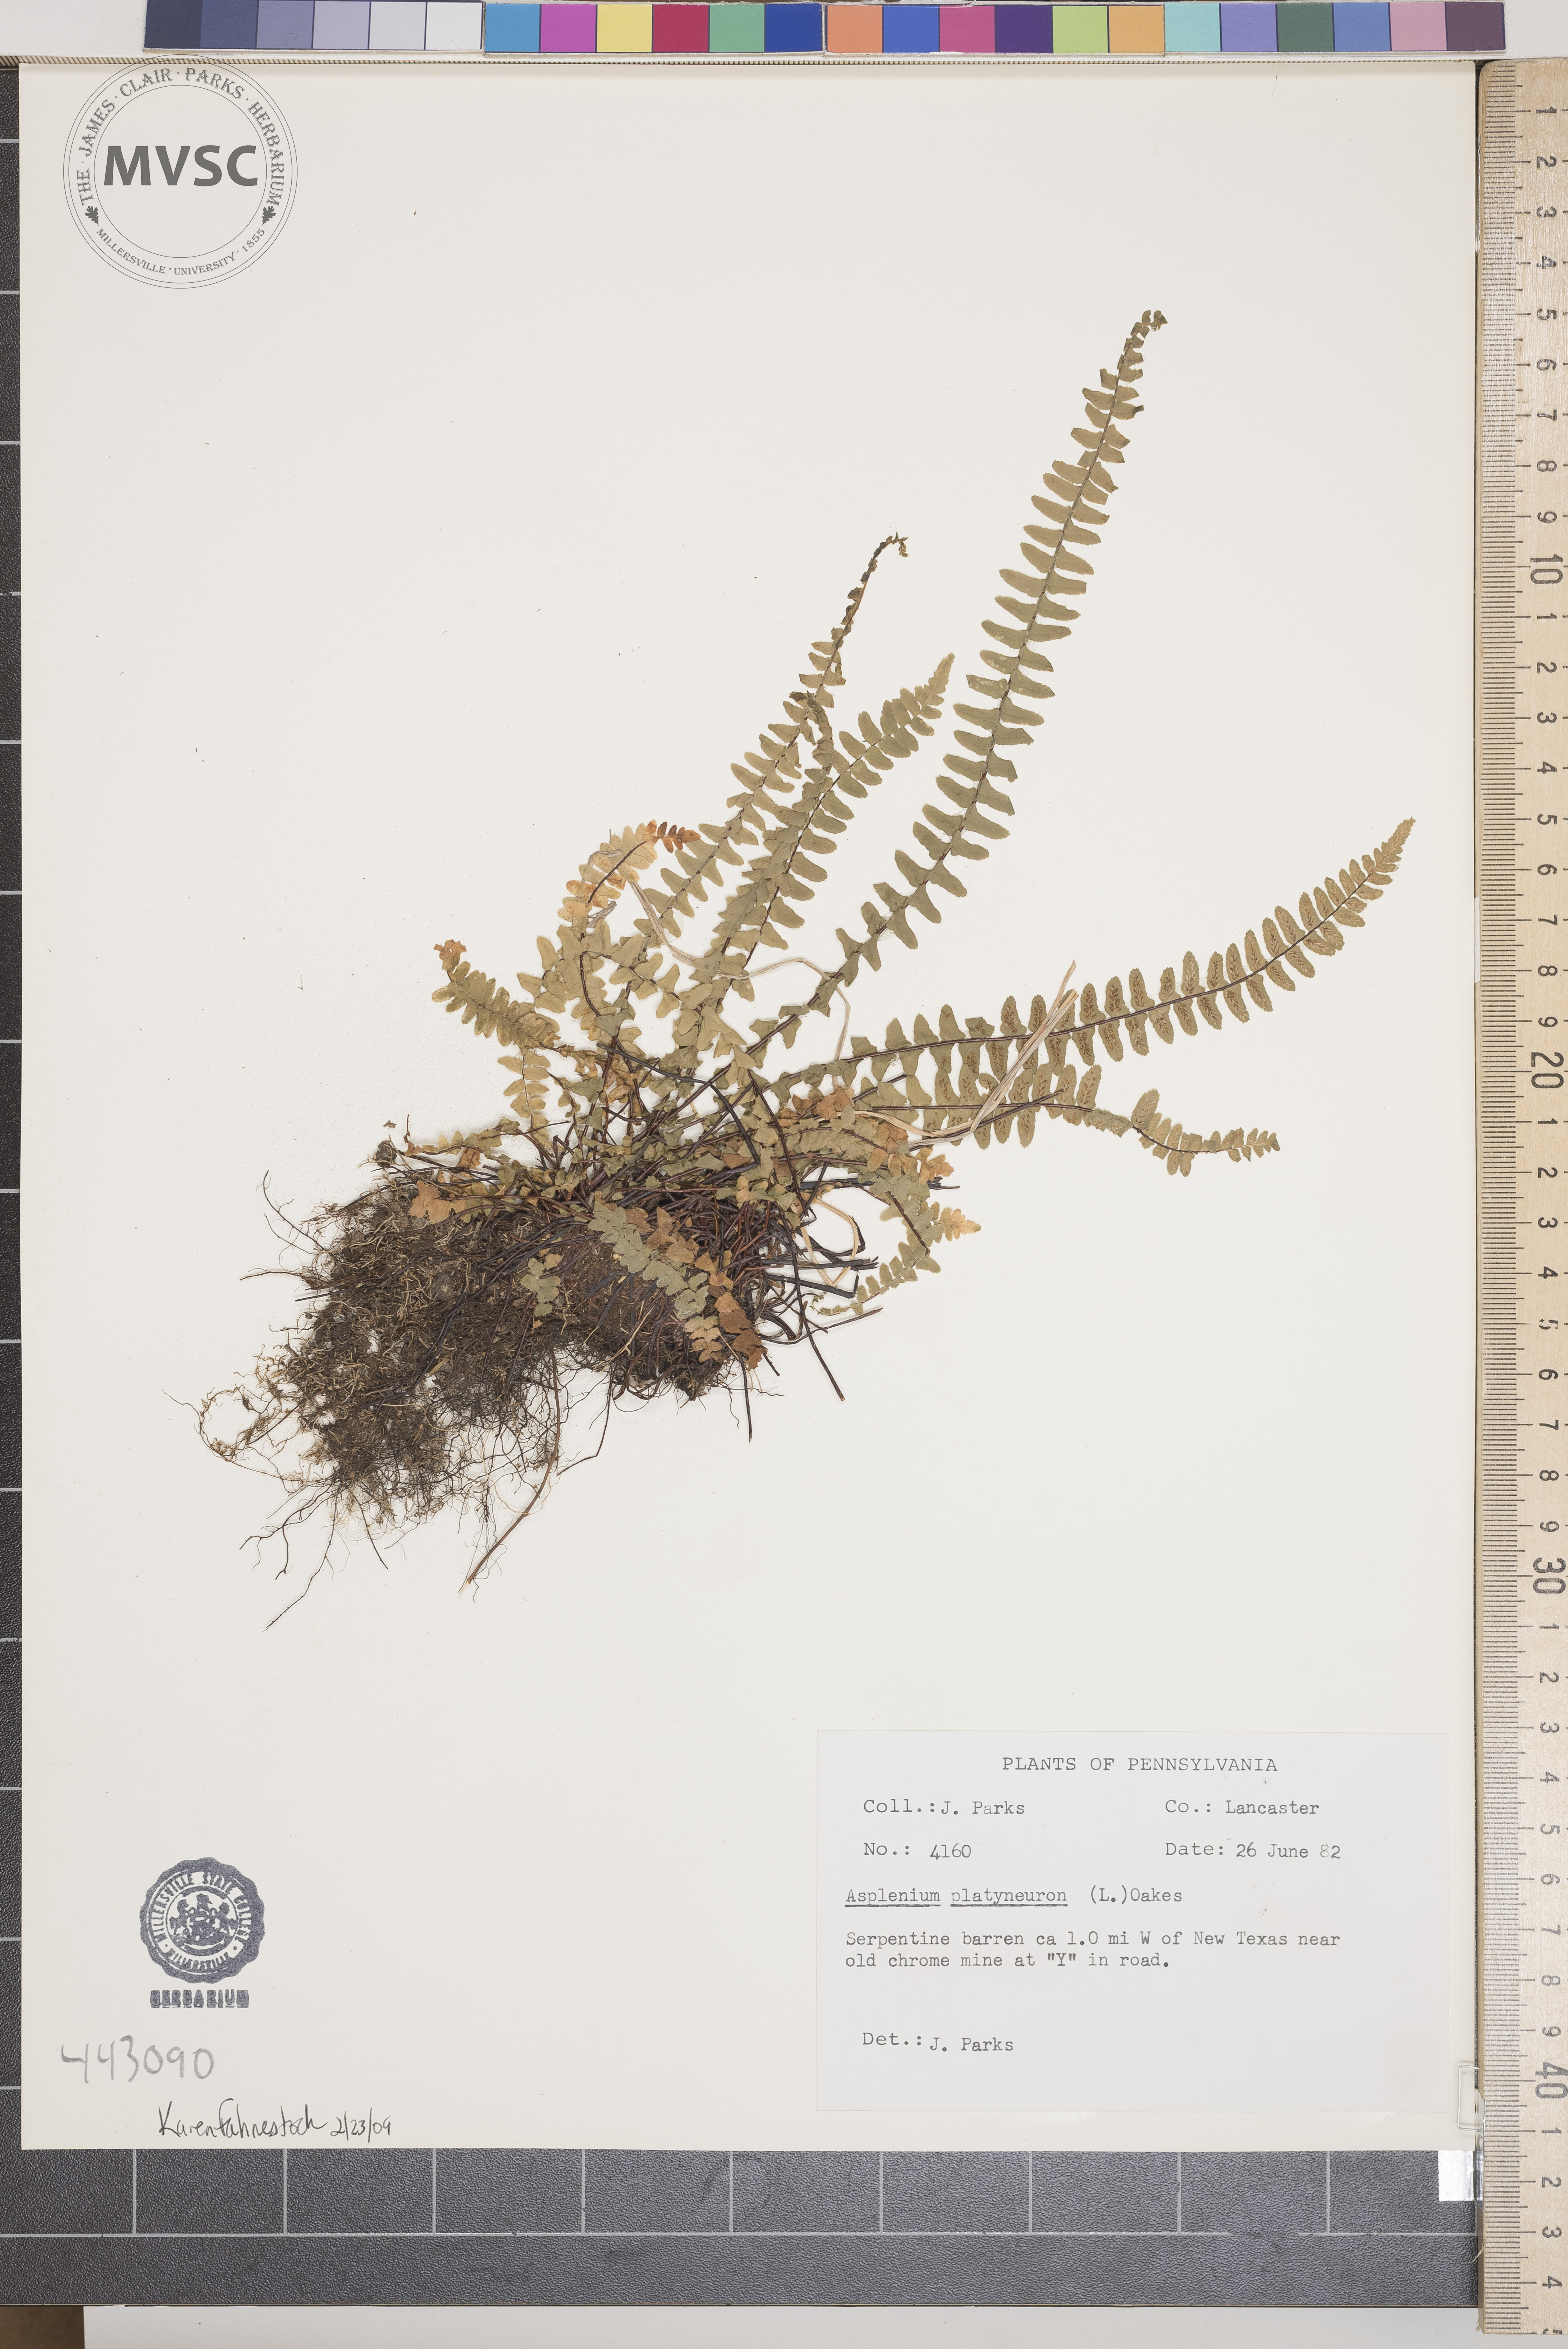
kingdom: Plantae
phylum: Tracheophyta
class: Polypodiopsida
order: Polypodiales
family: Aspleniaceae
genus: Asplenium
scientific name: Asplenium platyneuron
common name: Ebony spleenwort
